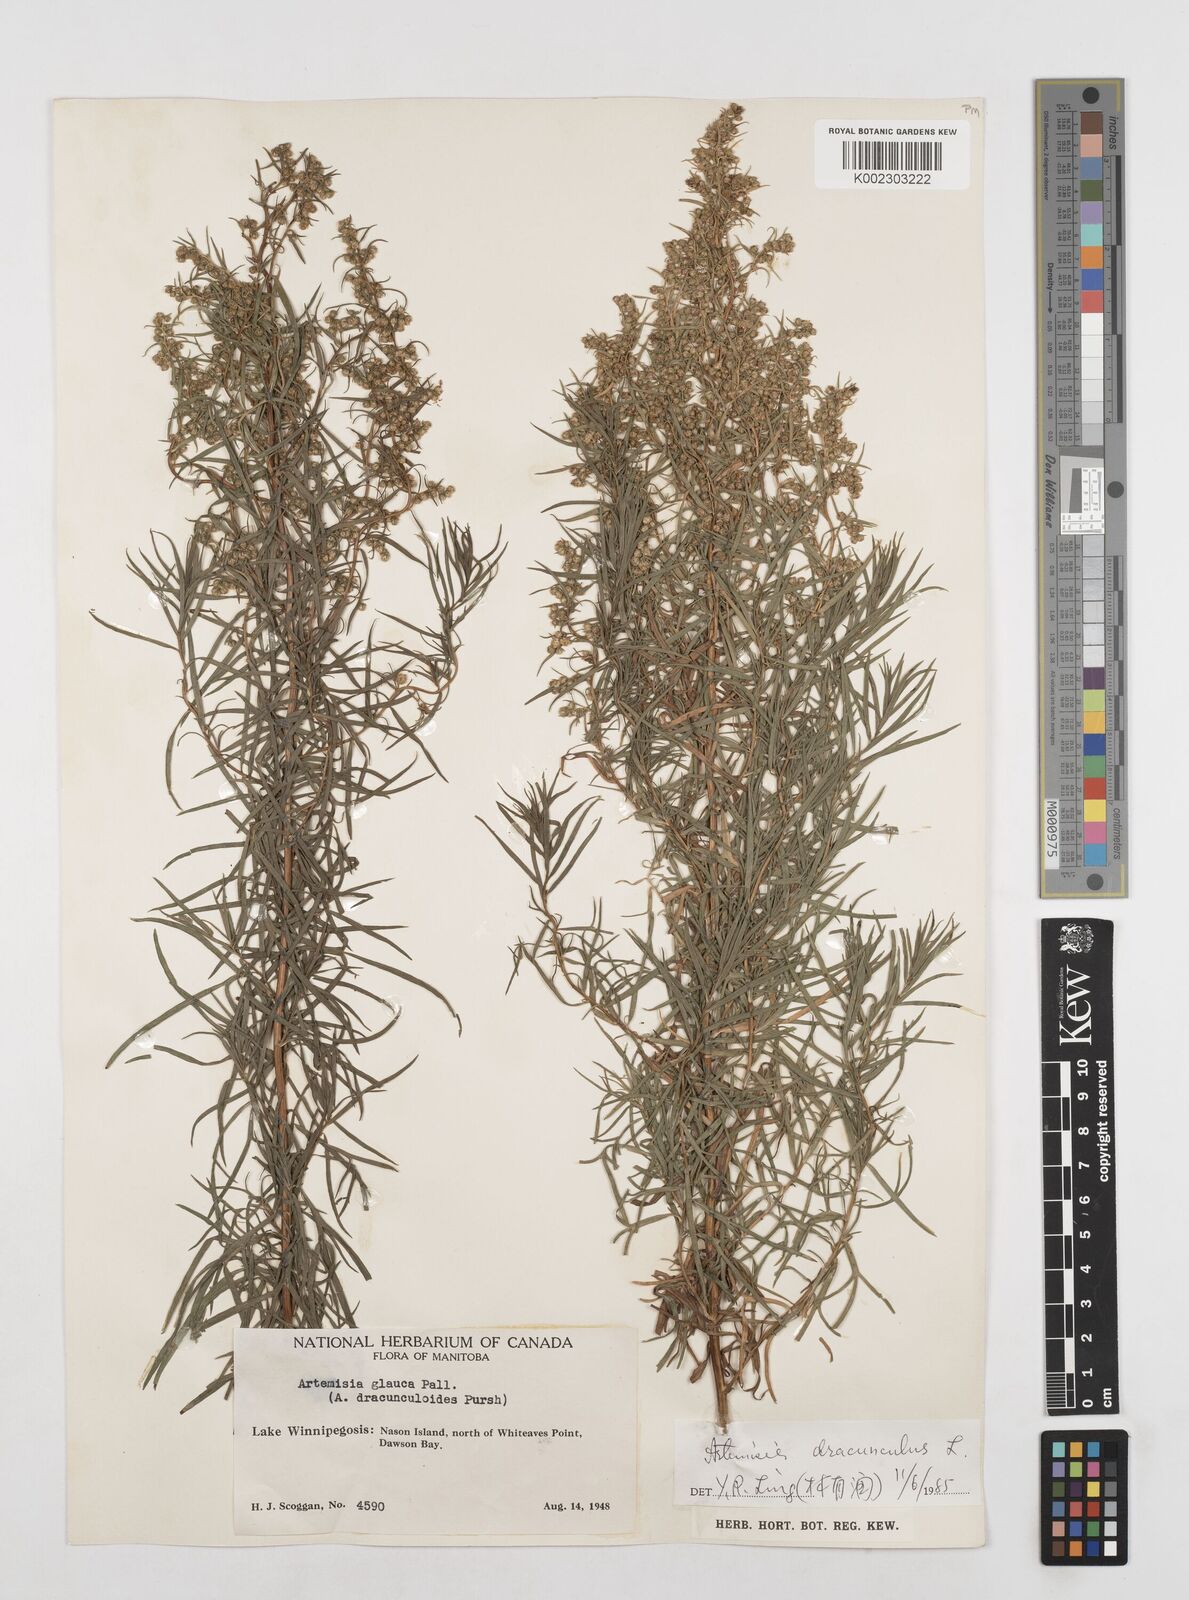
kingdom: Plantae
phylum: Tracheophyta
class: Magnoliopsida
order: Asterales
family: Asteraceae
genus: Artemisia
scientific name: Artemisia dracunculus
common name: Tarragon
